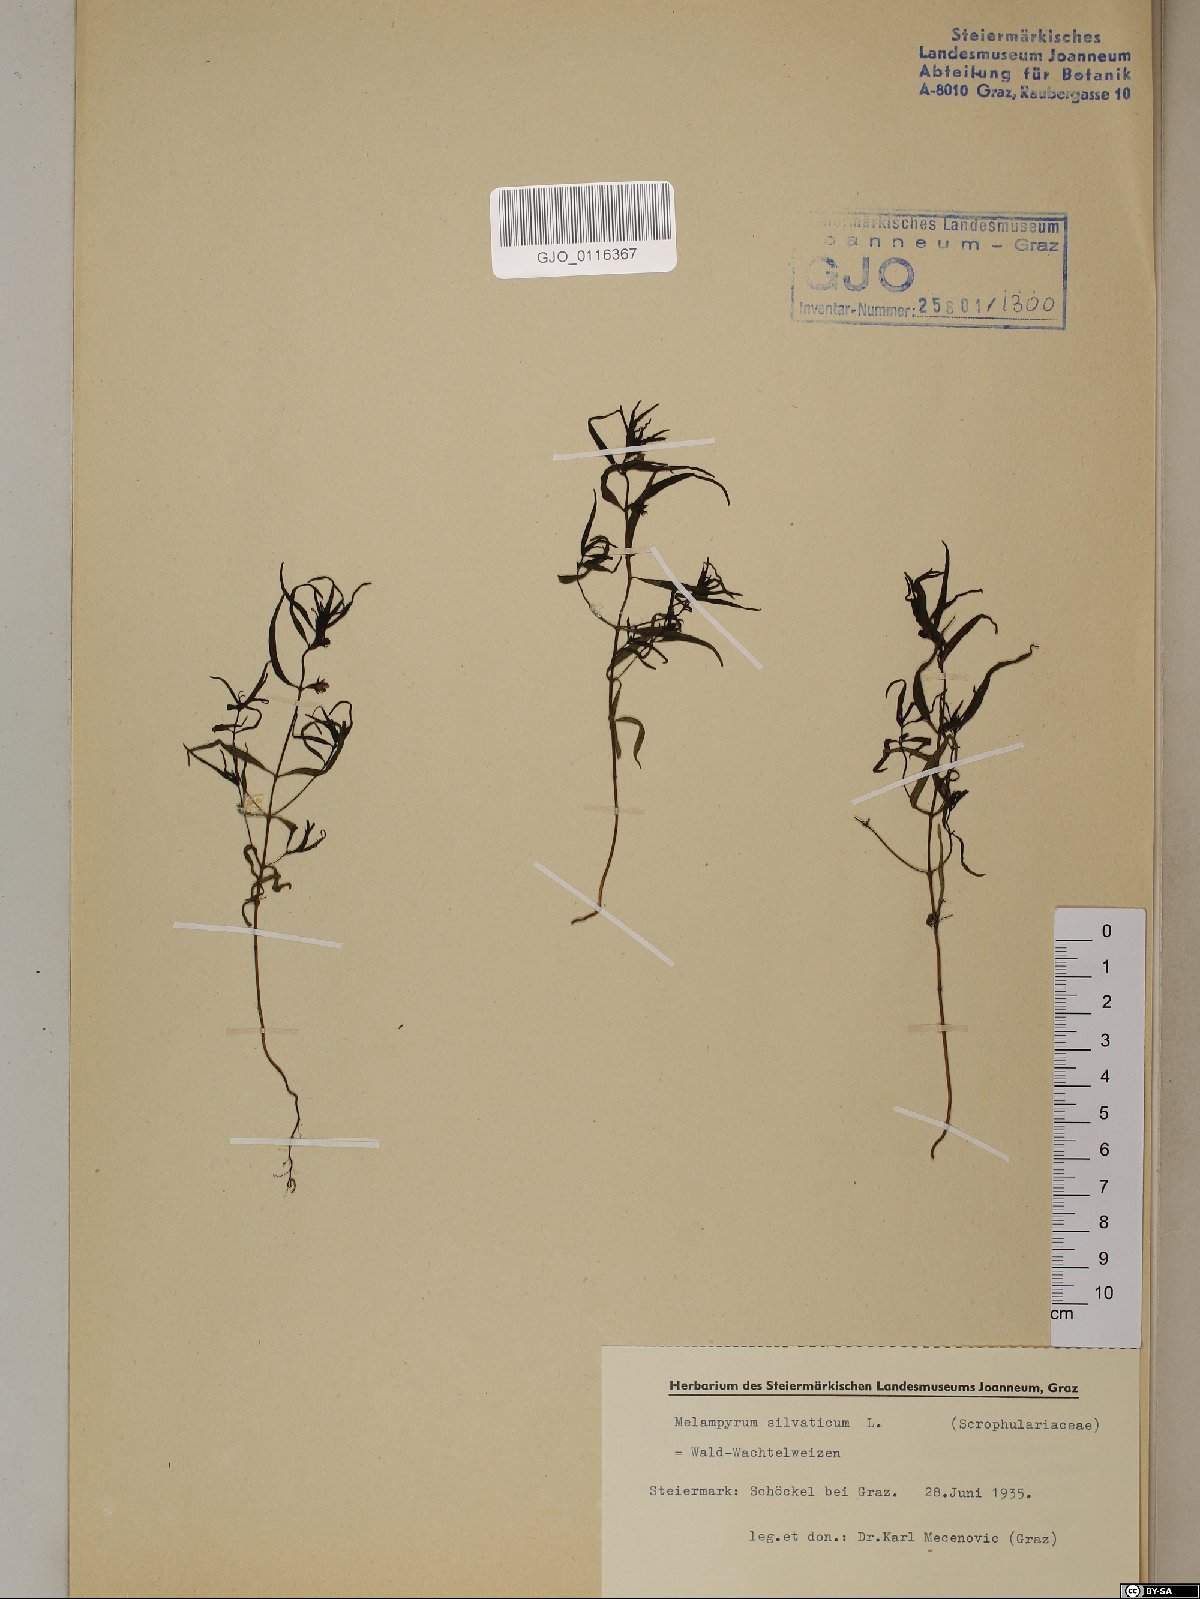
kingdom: Plantae
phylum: Tracheophyta
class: Magnoliopsida
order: Lamiales
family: Orobanchaceae
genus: Melampyrum
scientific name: Melampyrum sylvaticum
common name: Small cow-wheat
